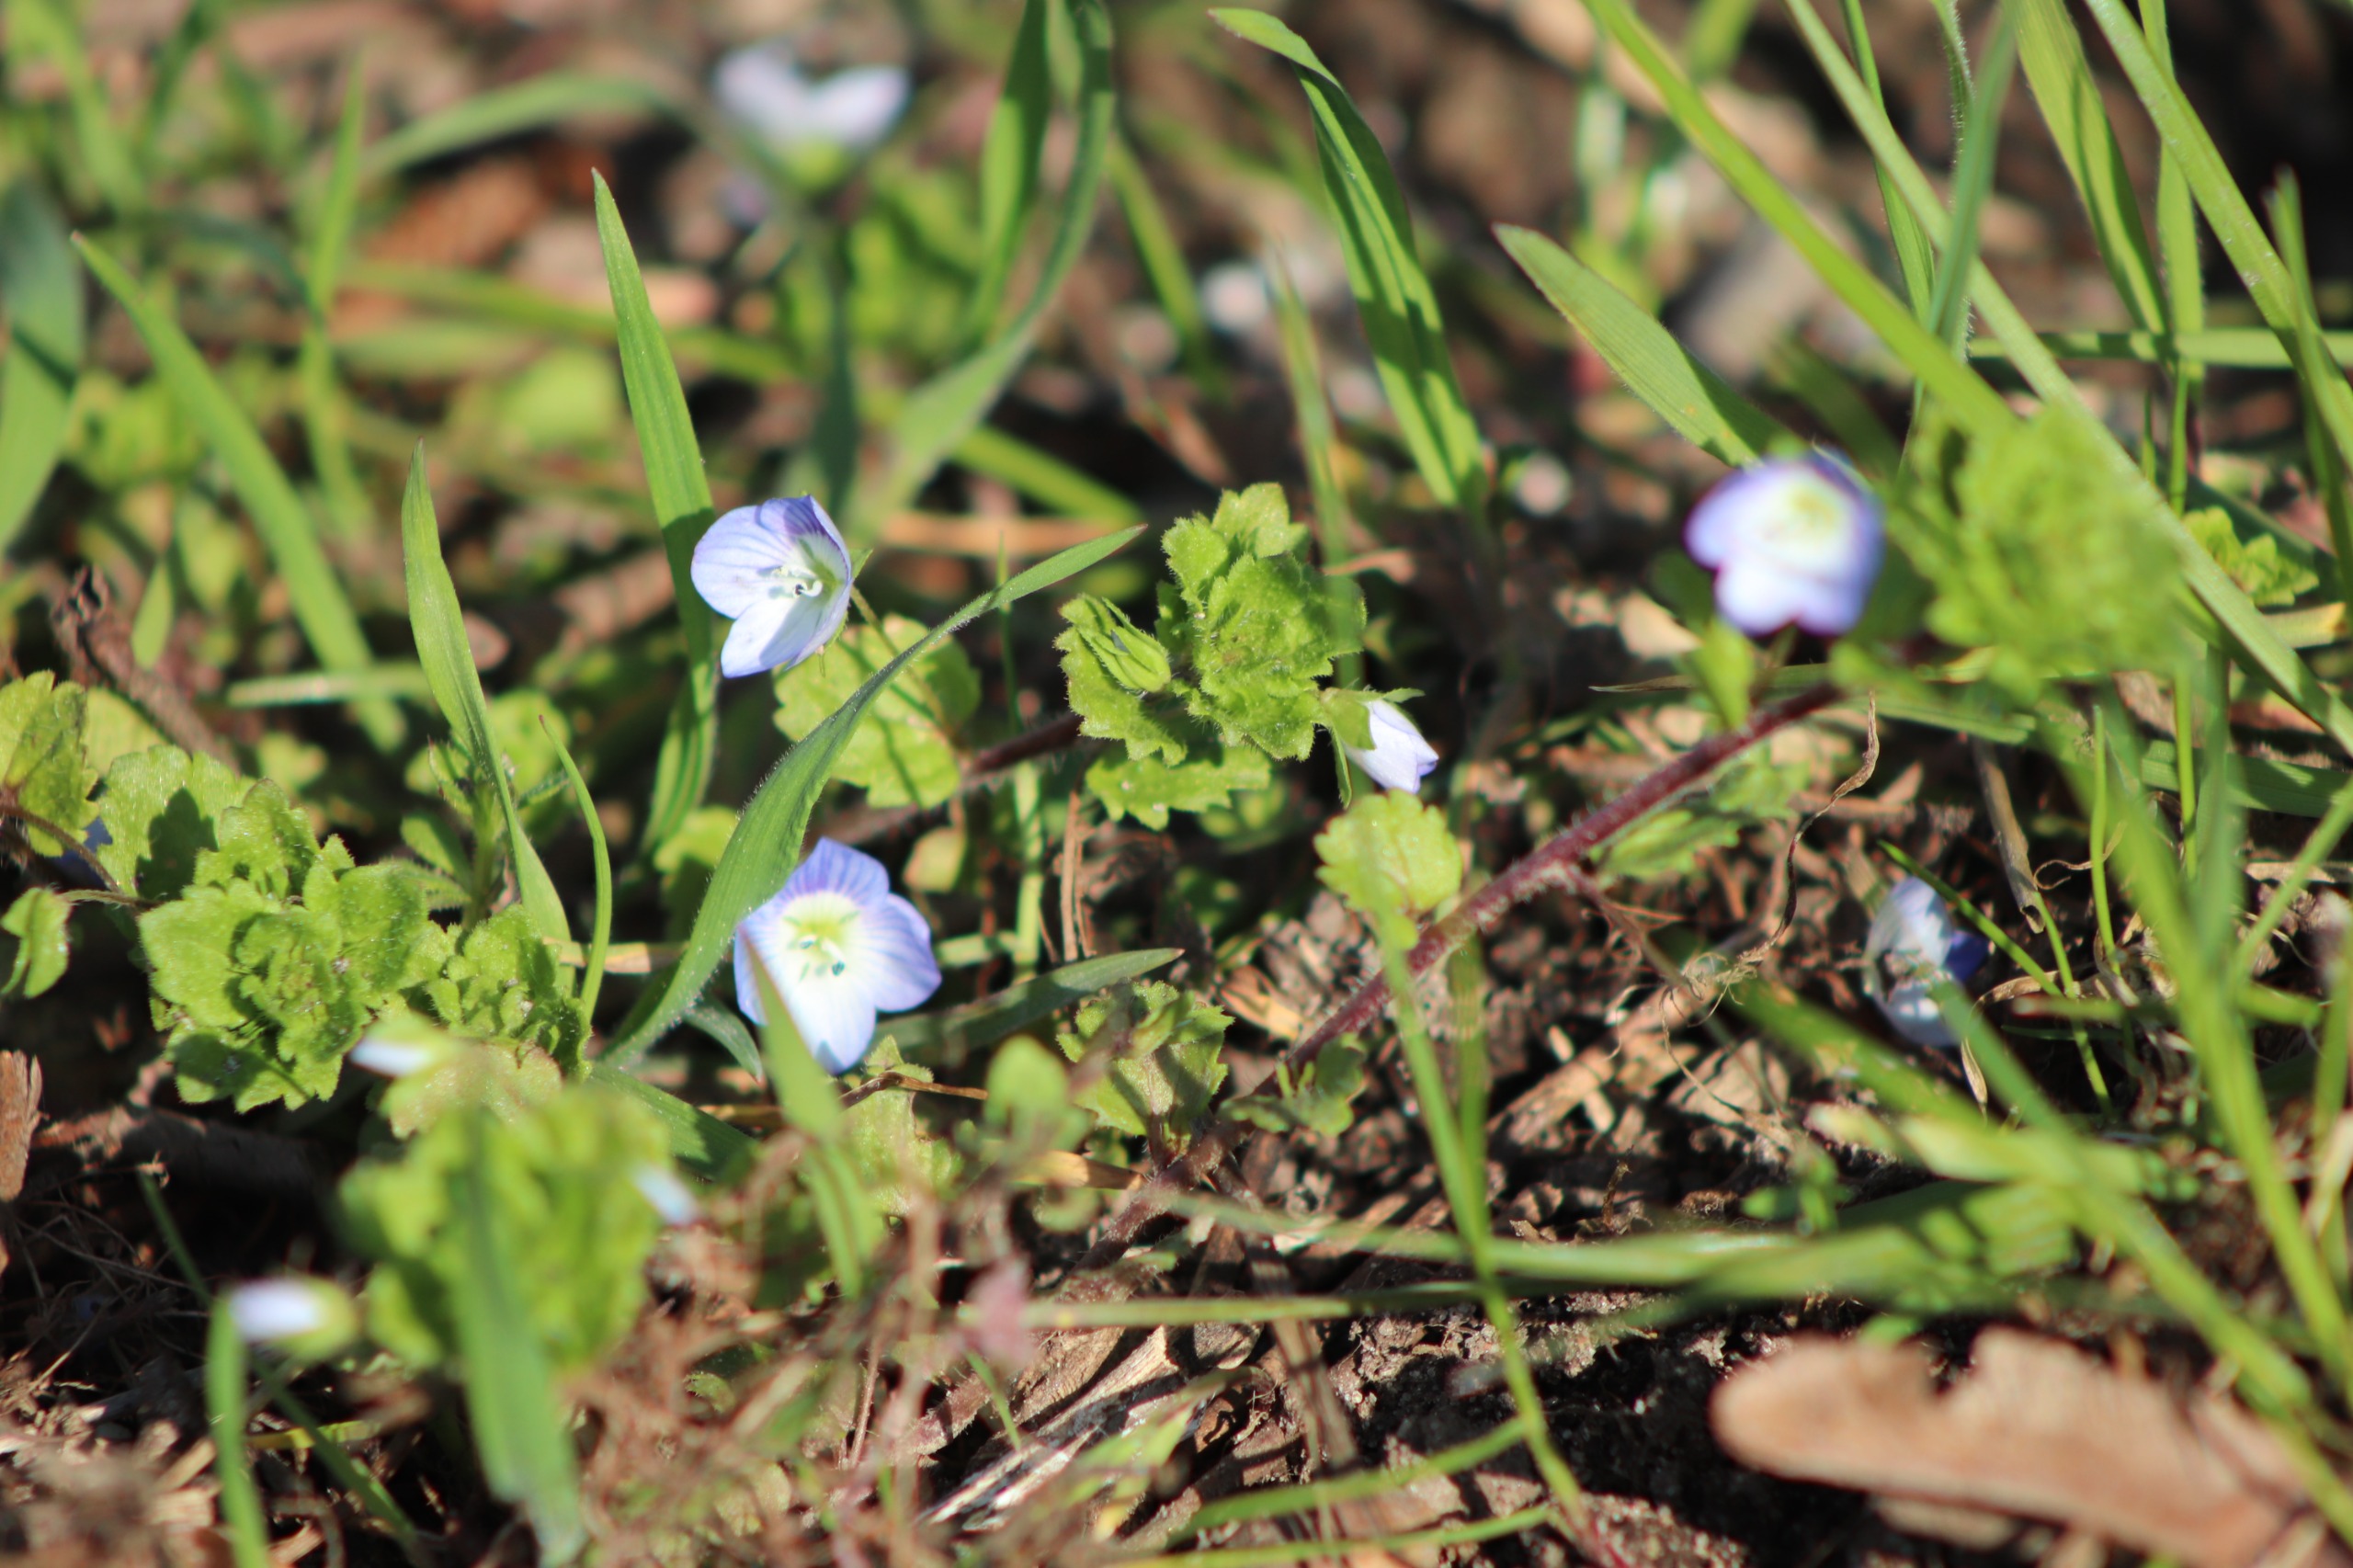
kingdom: Plantae
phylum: Tracheophyta
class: Magnoliopsida
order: Lamiales
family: Plantaginaceae
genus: Veronica
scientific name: Veronica persica
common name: Storkronet ærenpris
